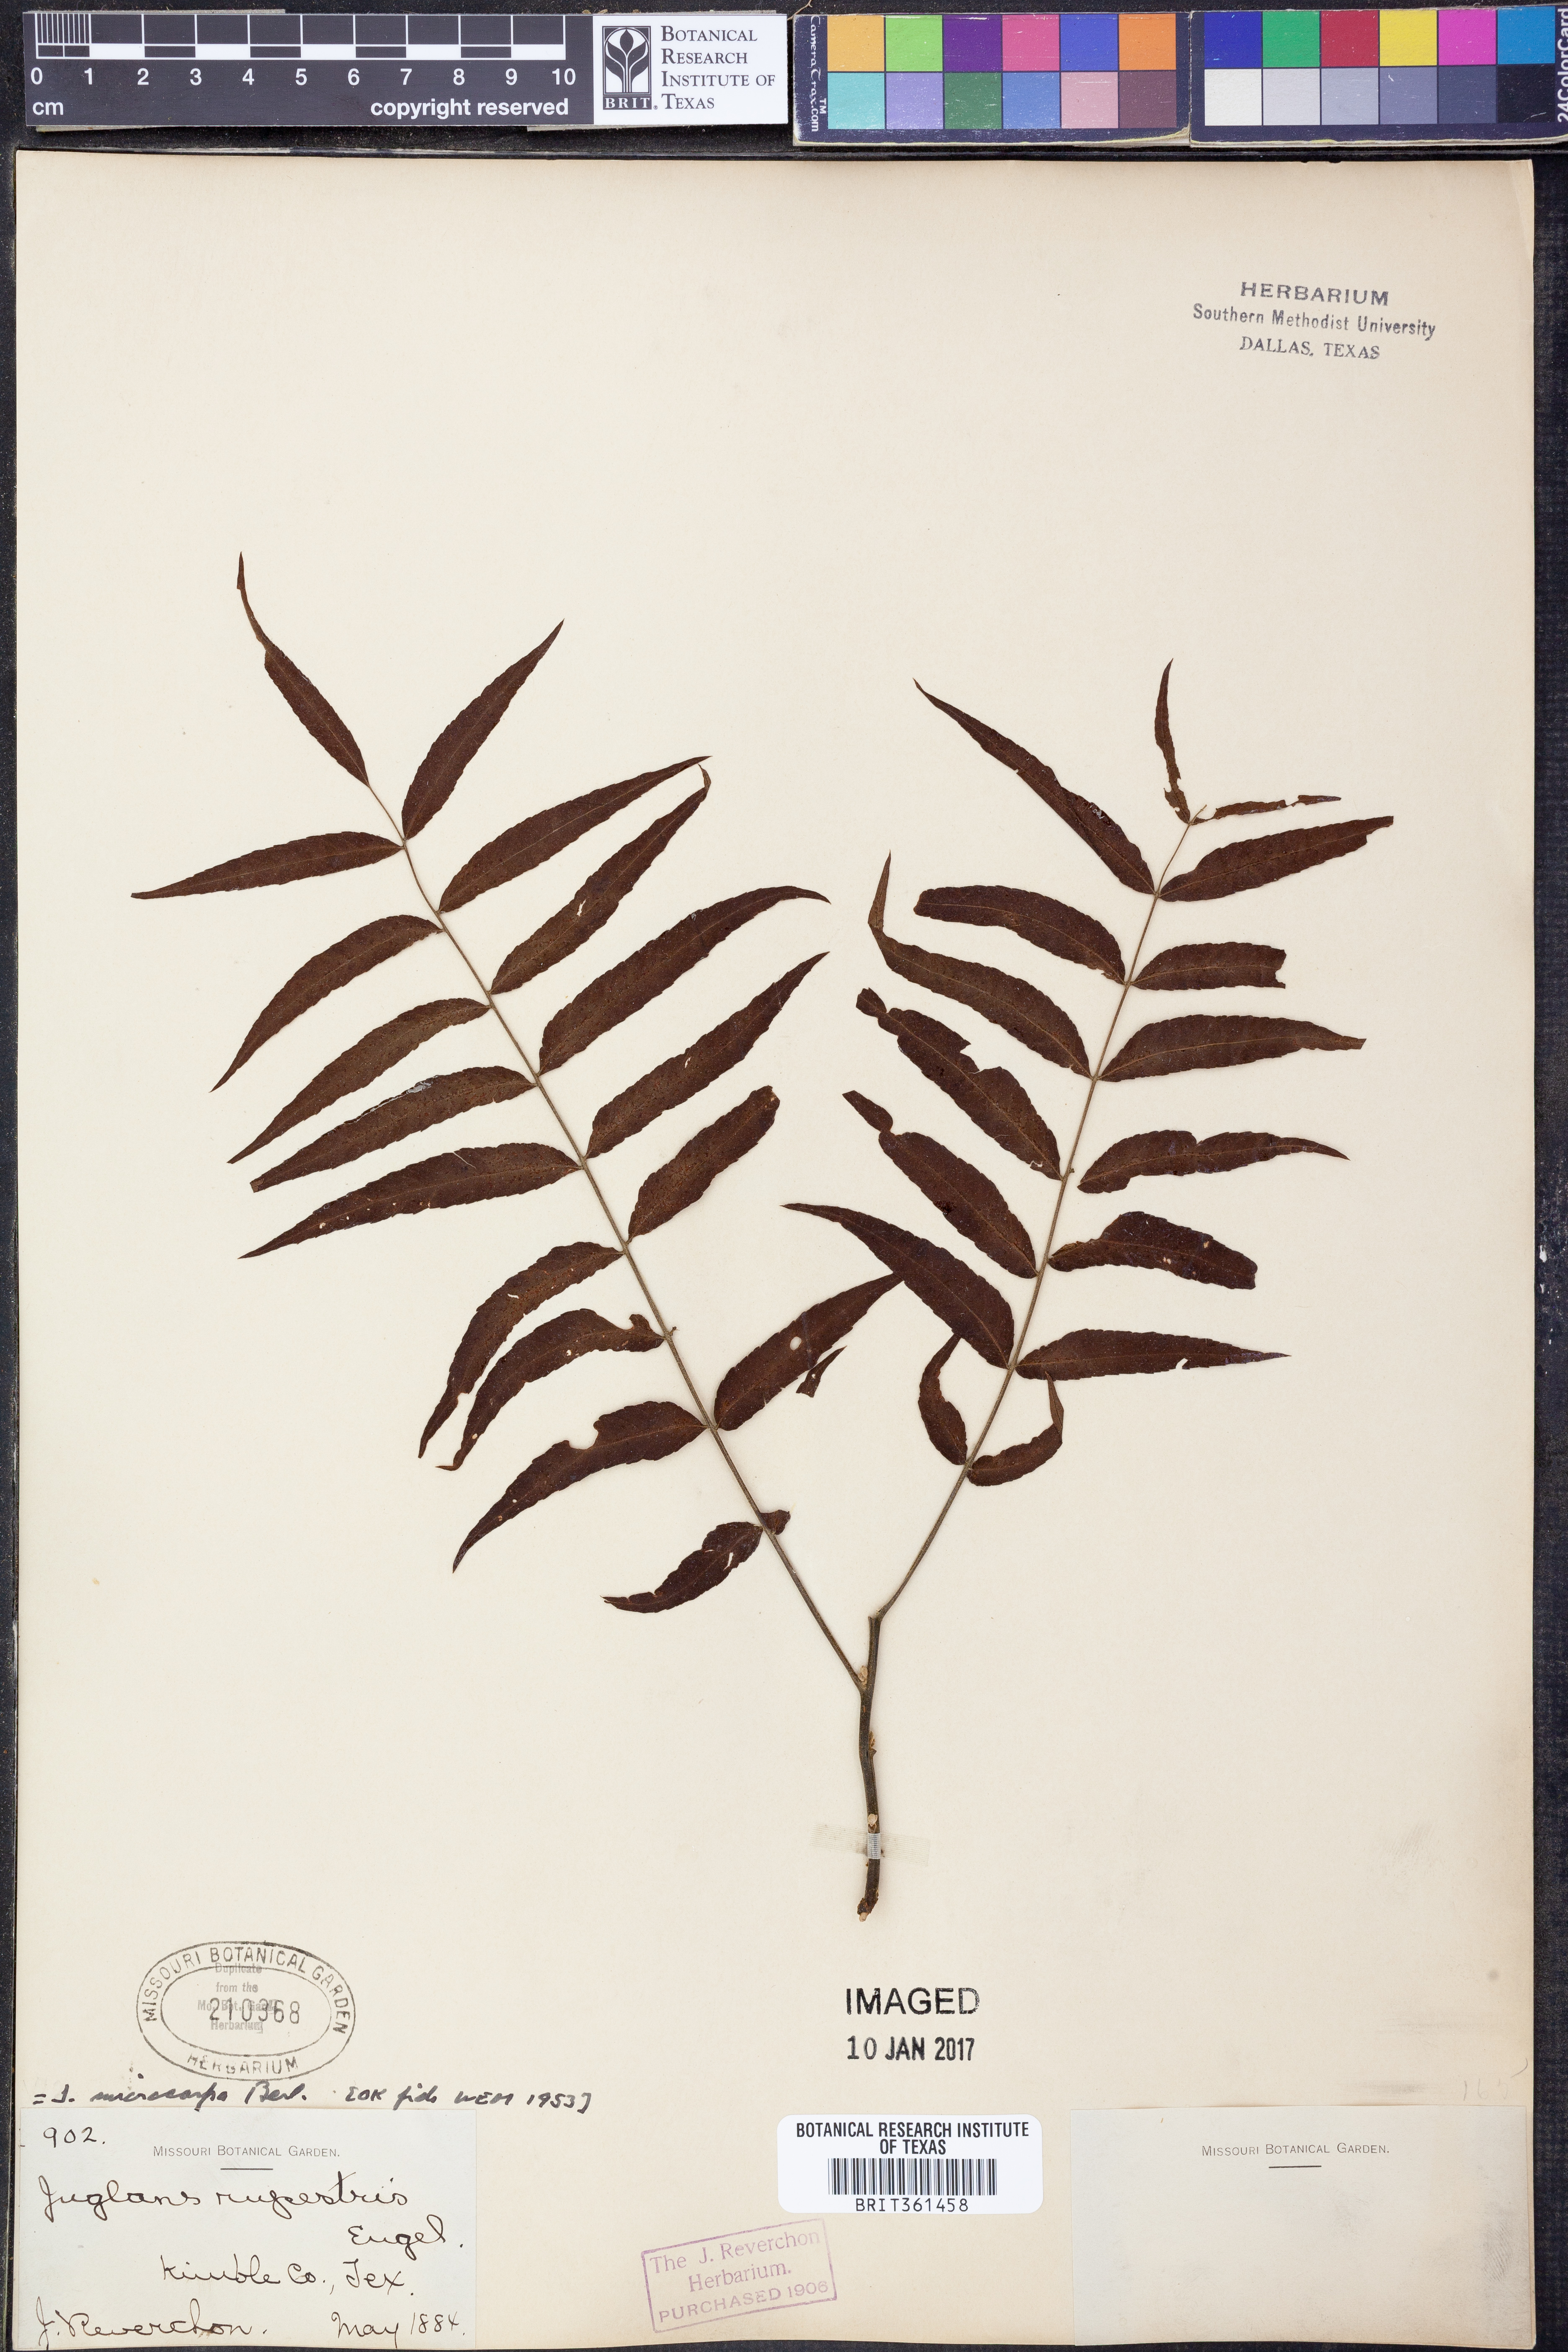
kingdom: Plantae
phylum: Tracheophyta
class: Magnoliopsida
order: Fagales
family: Juglandaceae
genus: Juglans
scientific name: Juglans microcarpa
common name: Texas walnut
